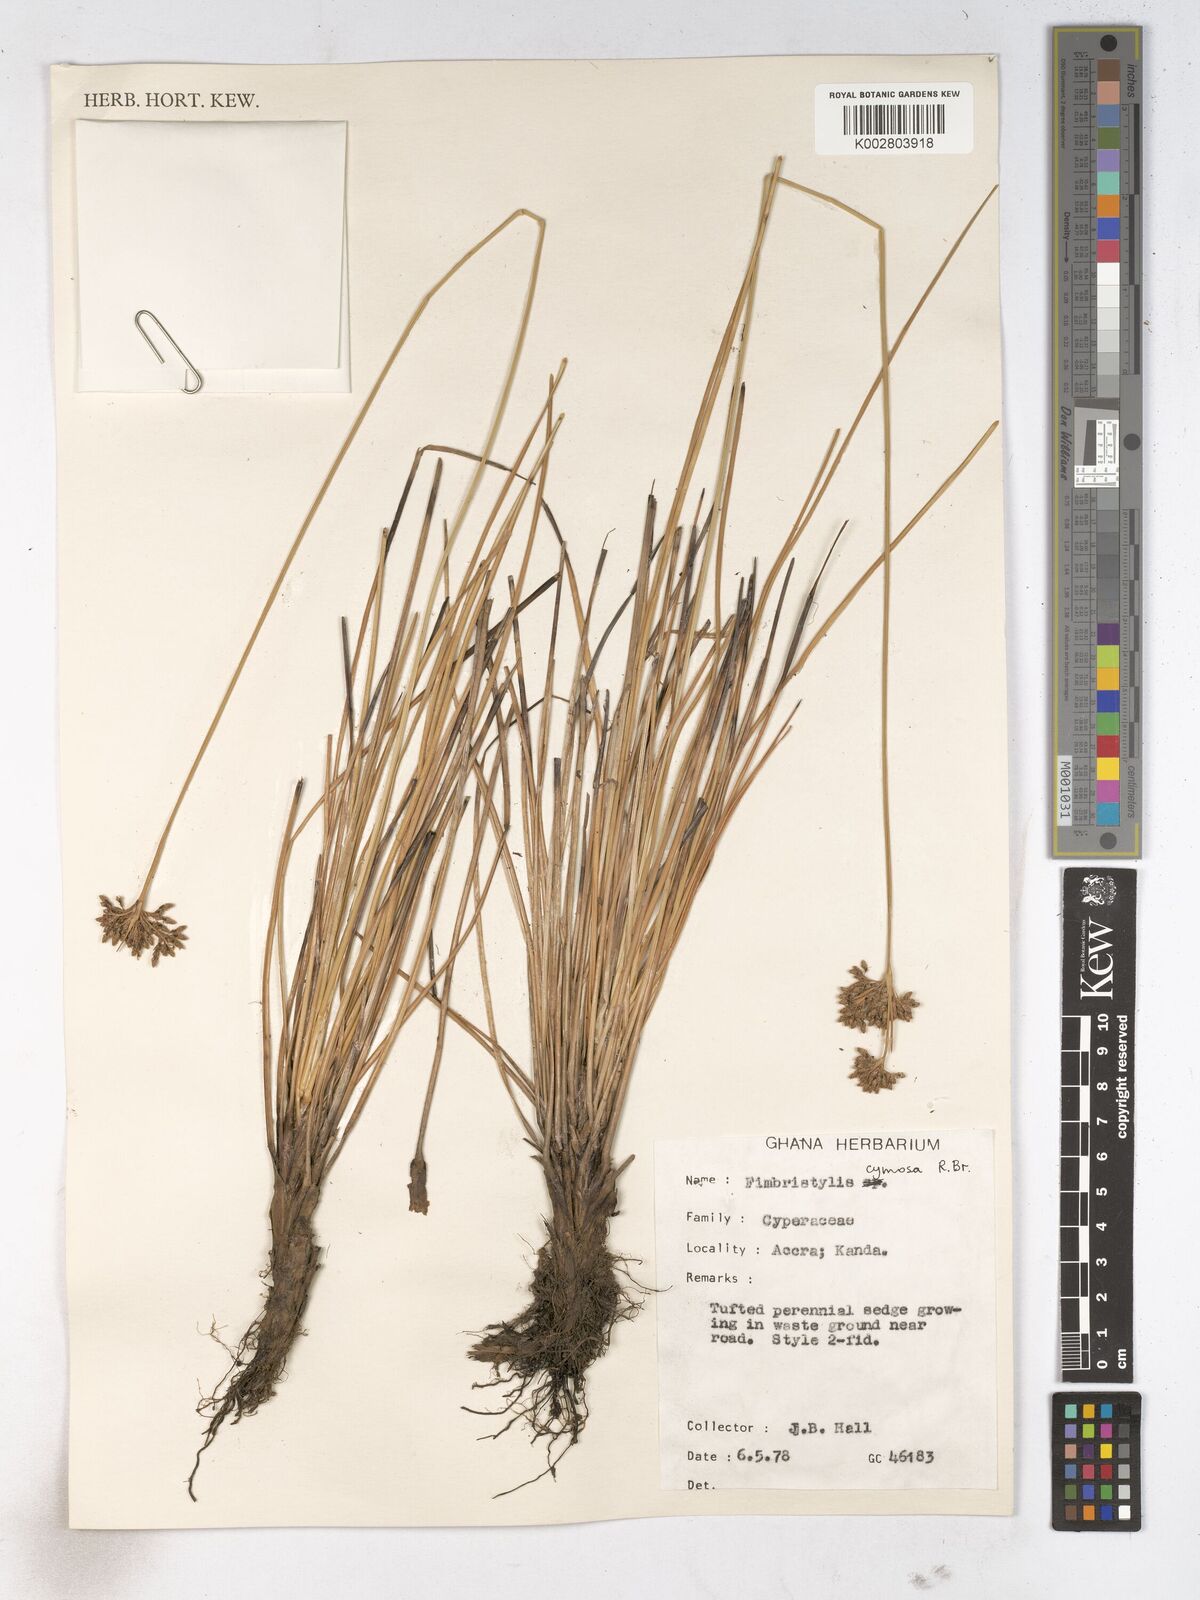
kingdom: Plantae
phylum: Tracheophyta
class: Liliopsida
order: Poales
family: Cyperaceae
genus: Fimbristylis
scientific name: Fimbristylis cymosa
